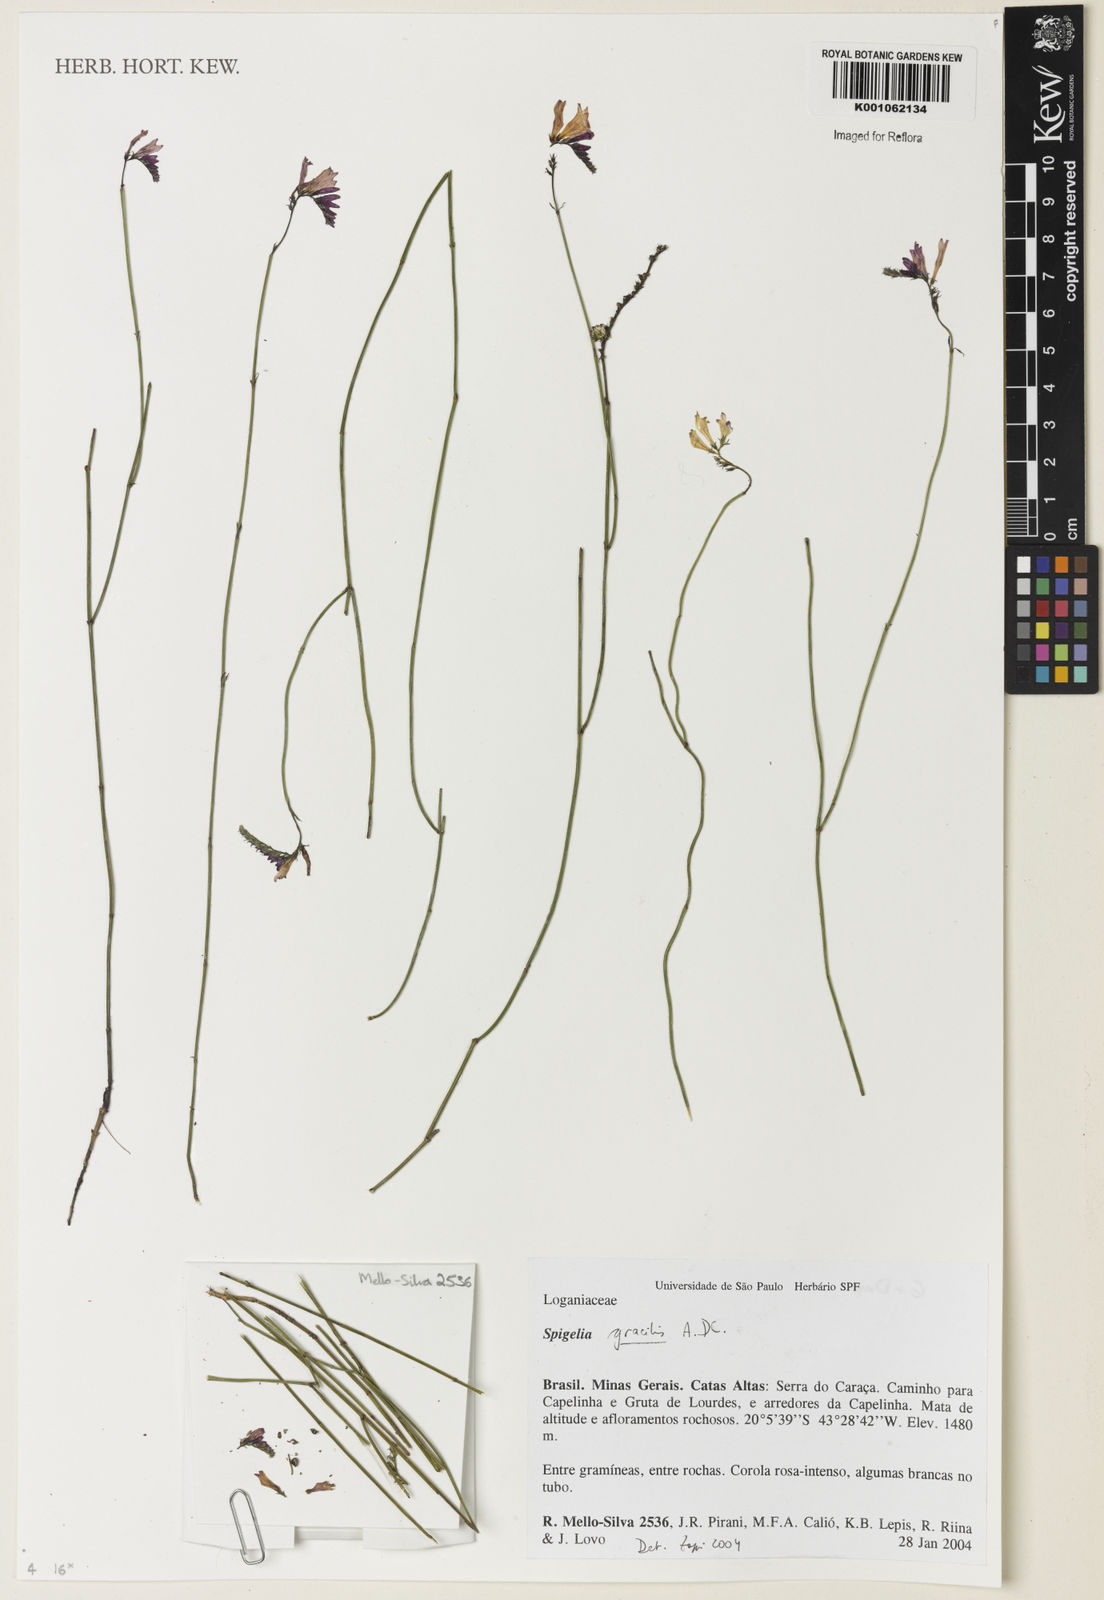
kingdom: Plantae
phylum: Tracheophyta
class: Magnoliopsida
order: Gentianales
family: Loganiaceae
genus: Spigelia
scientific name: Spigelia
